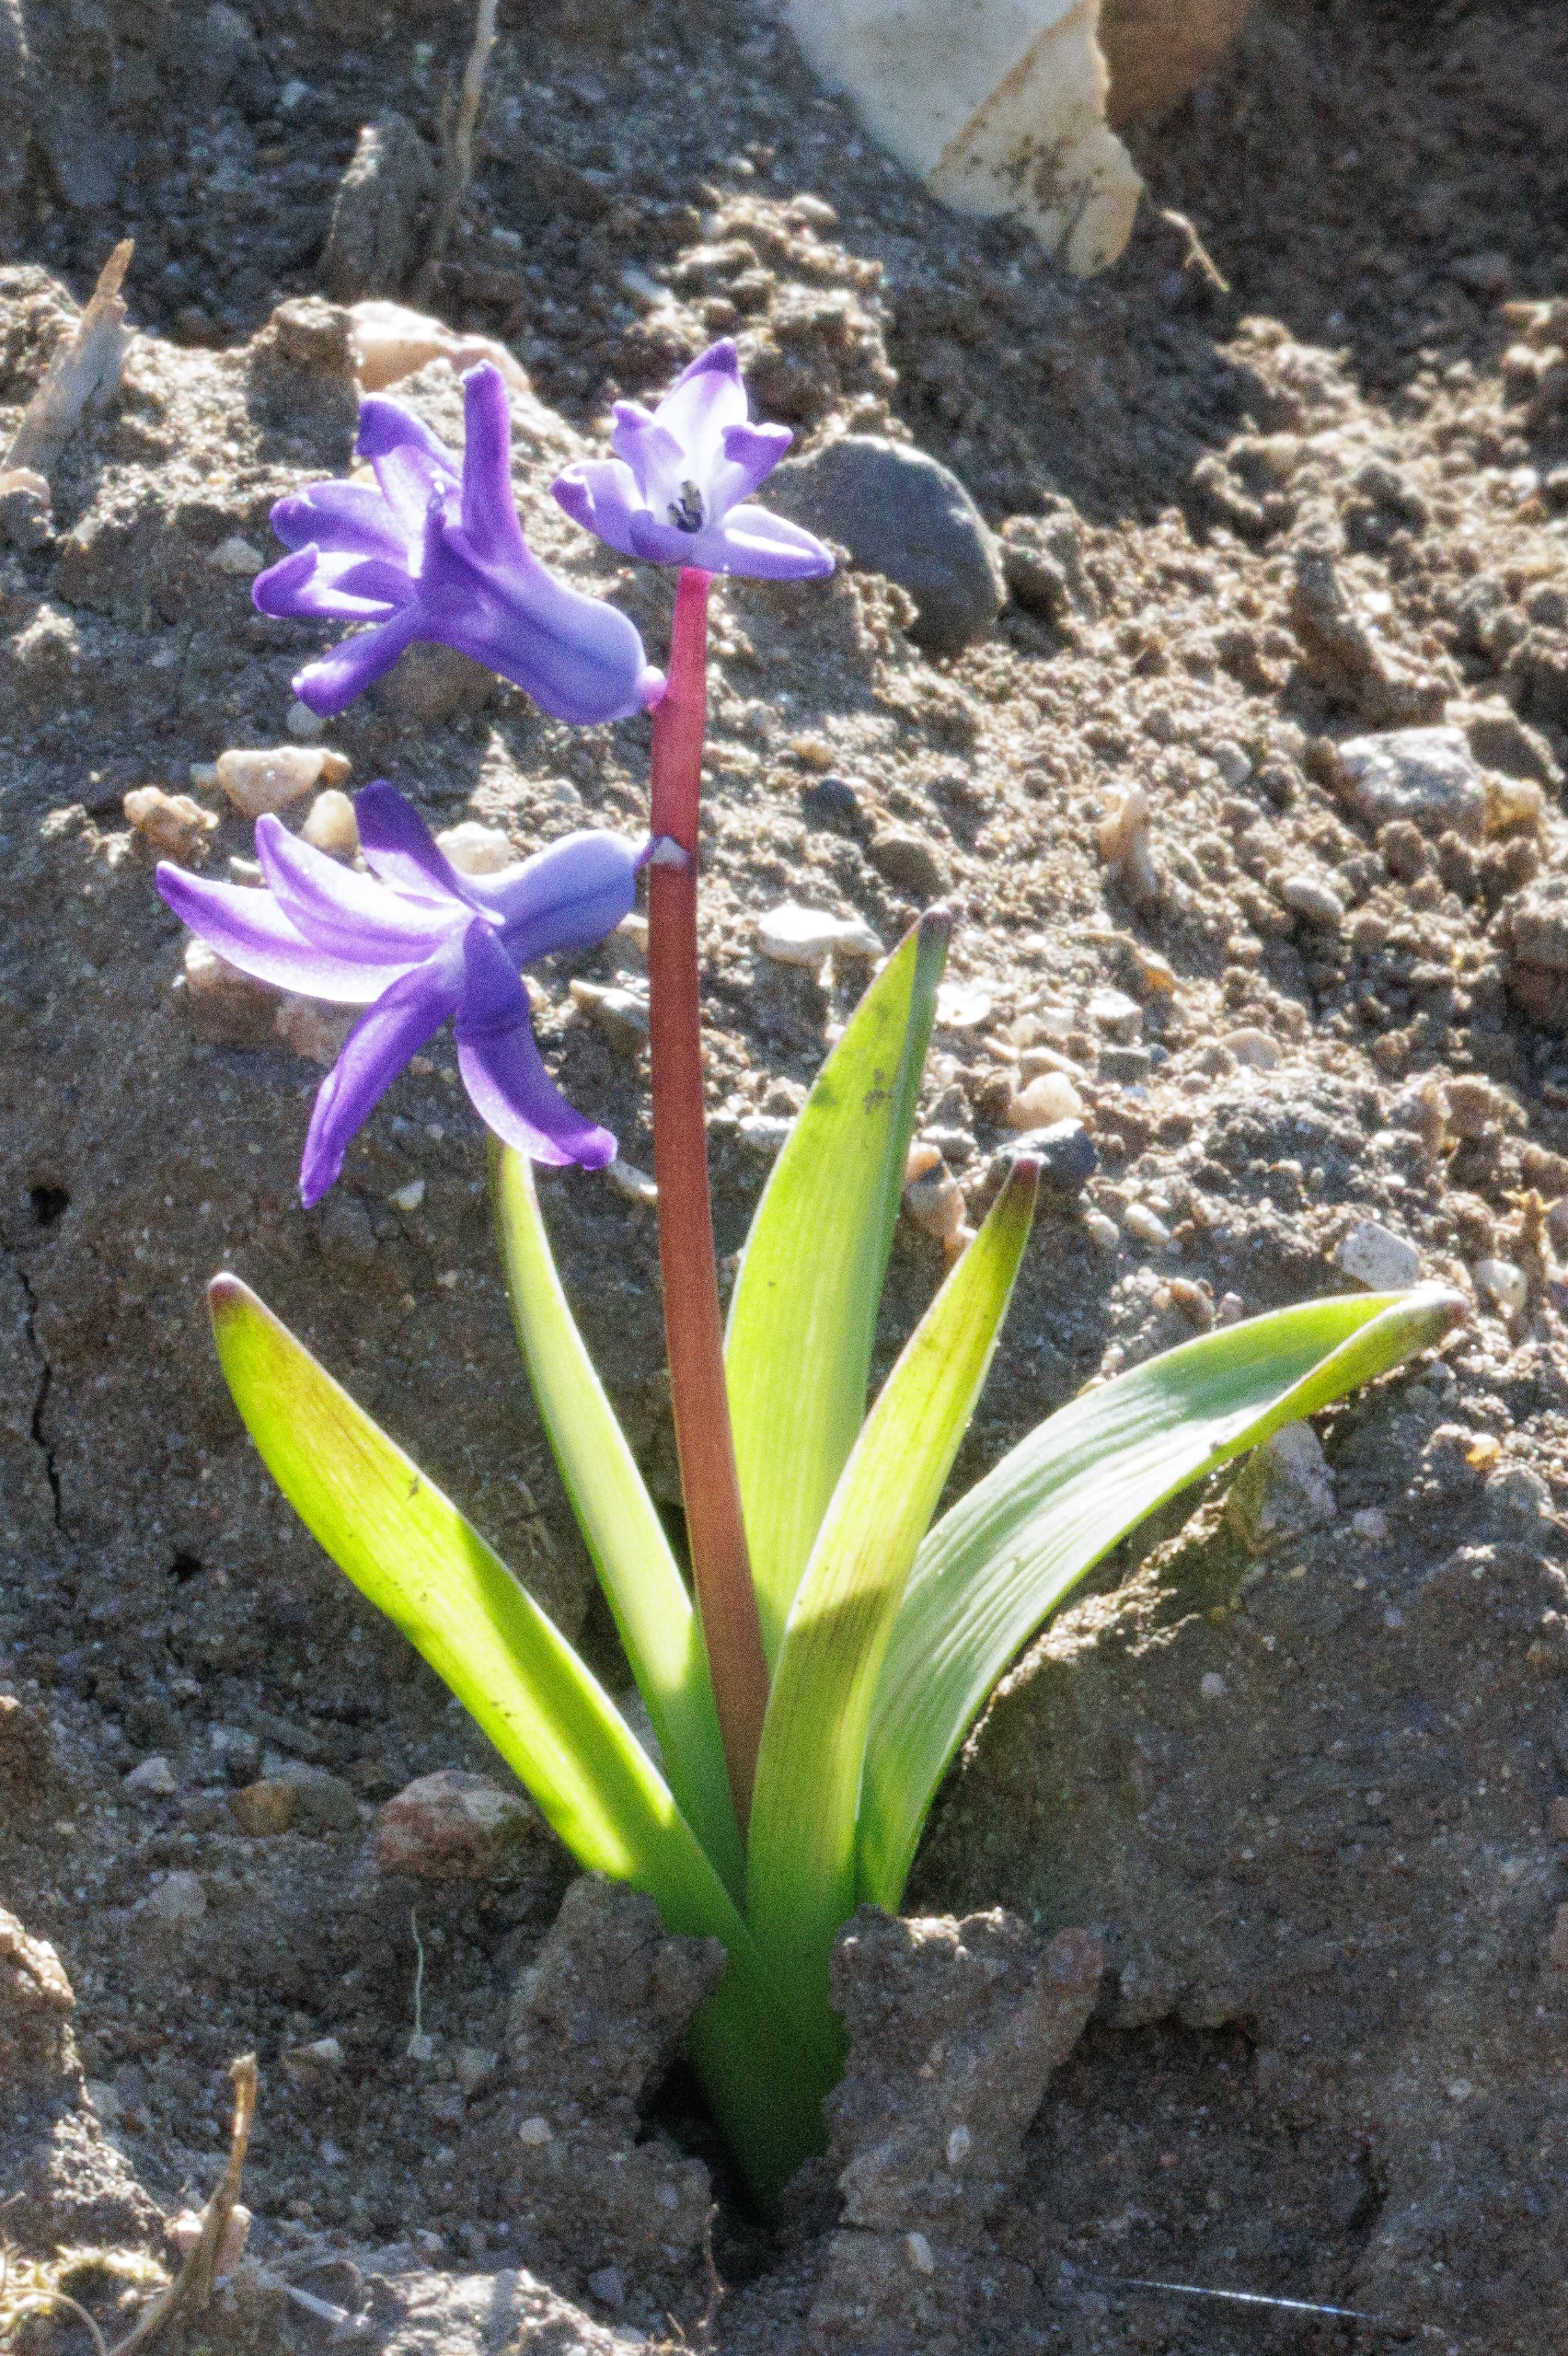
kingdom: Plantae
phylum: Tracheophyta
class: Liliopsida
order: Asparagales
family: Asparagaceae
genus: Hyacinthus
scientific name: Hyacinthus orientalis
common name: Hyacint
